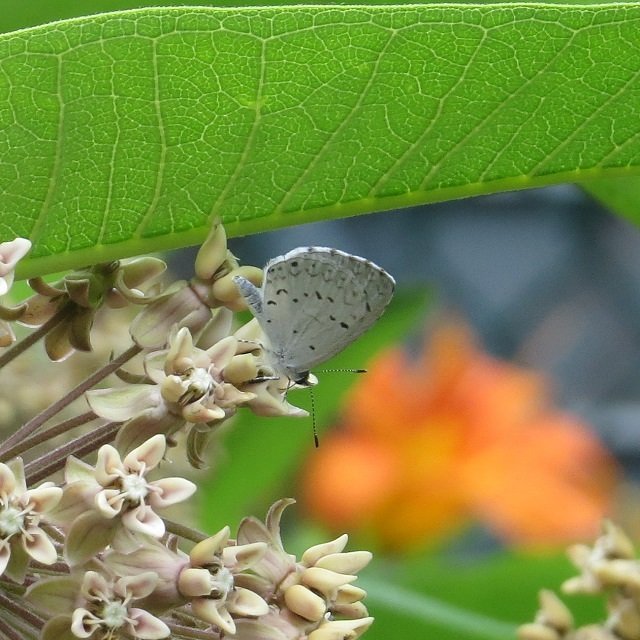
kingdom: Animalia
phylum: Arthropoda
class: Insecta
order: Lepidoptera
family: Lycaenidae
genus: Celastrina
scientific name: Celastrina
